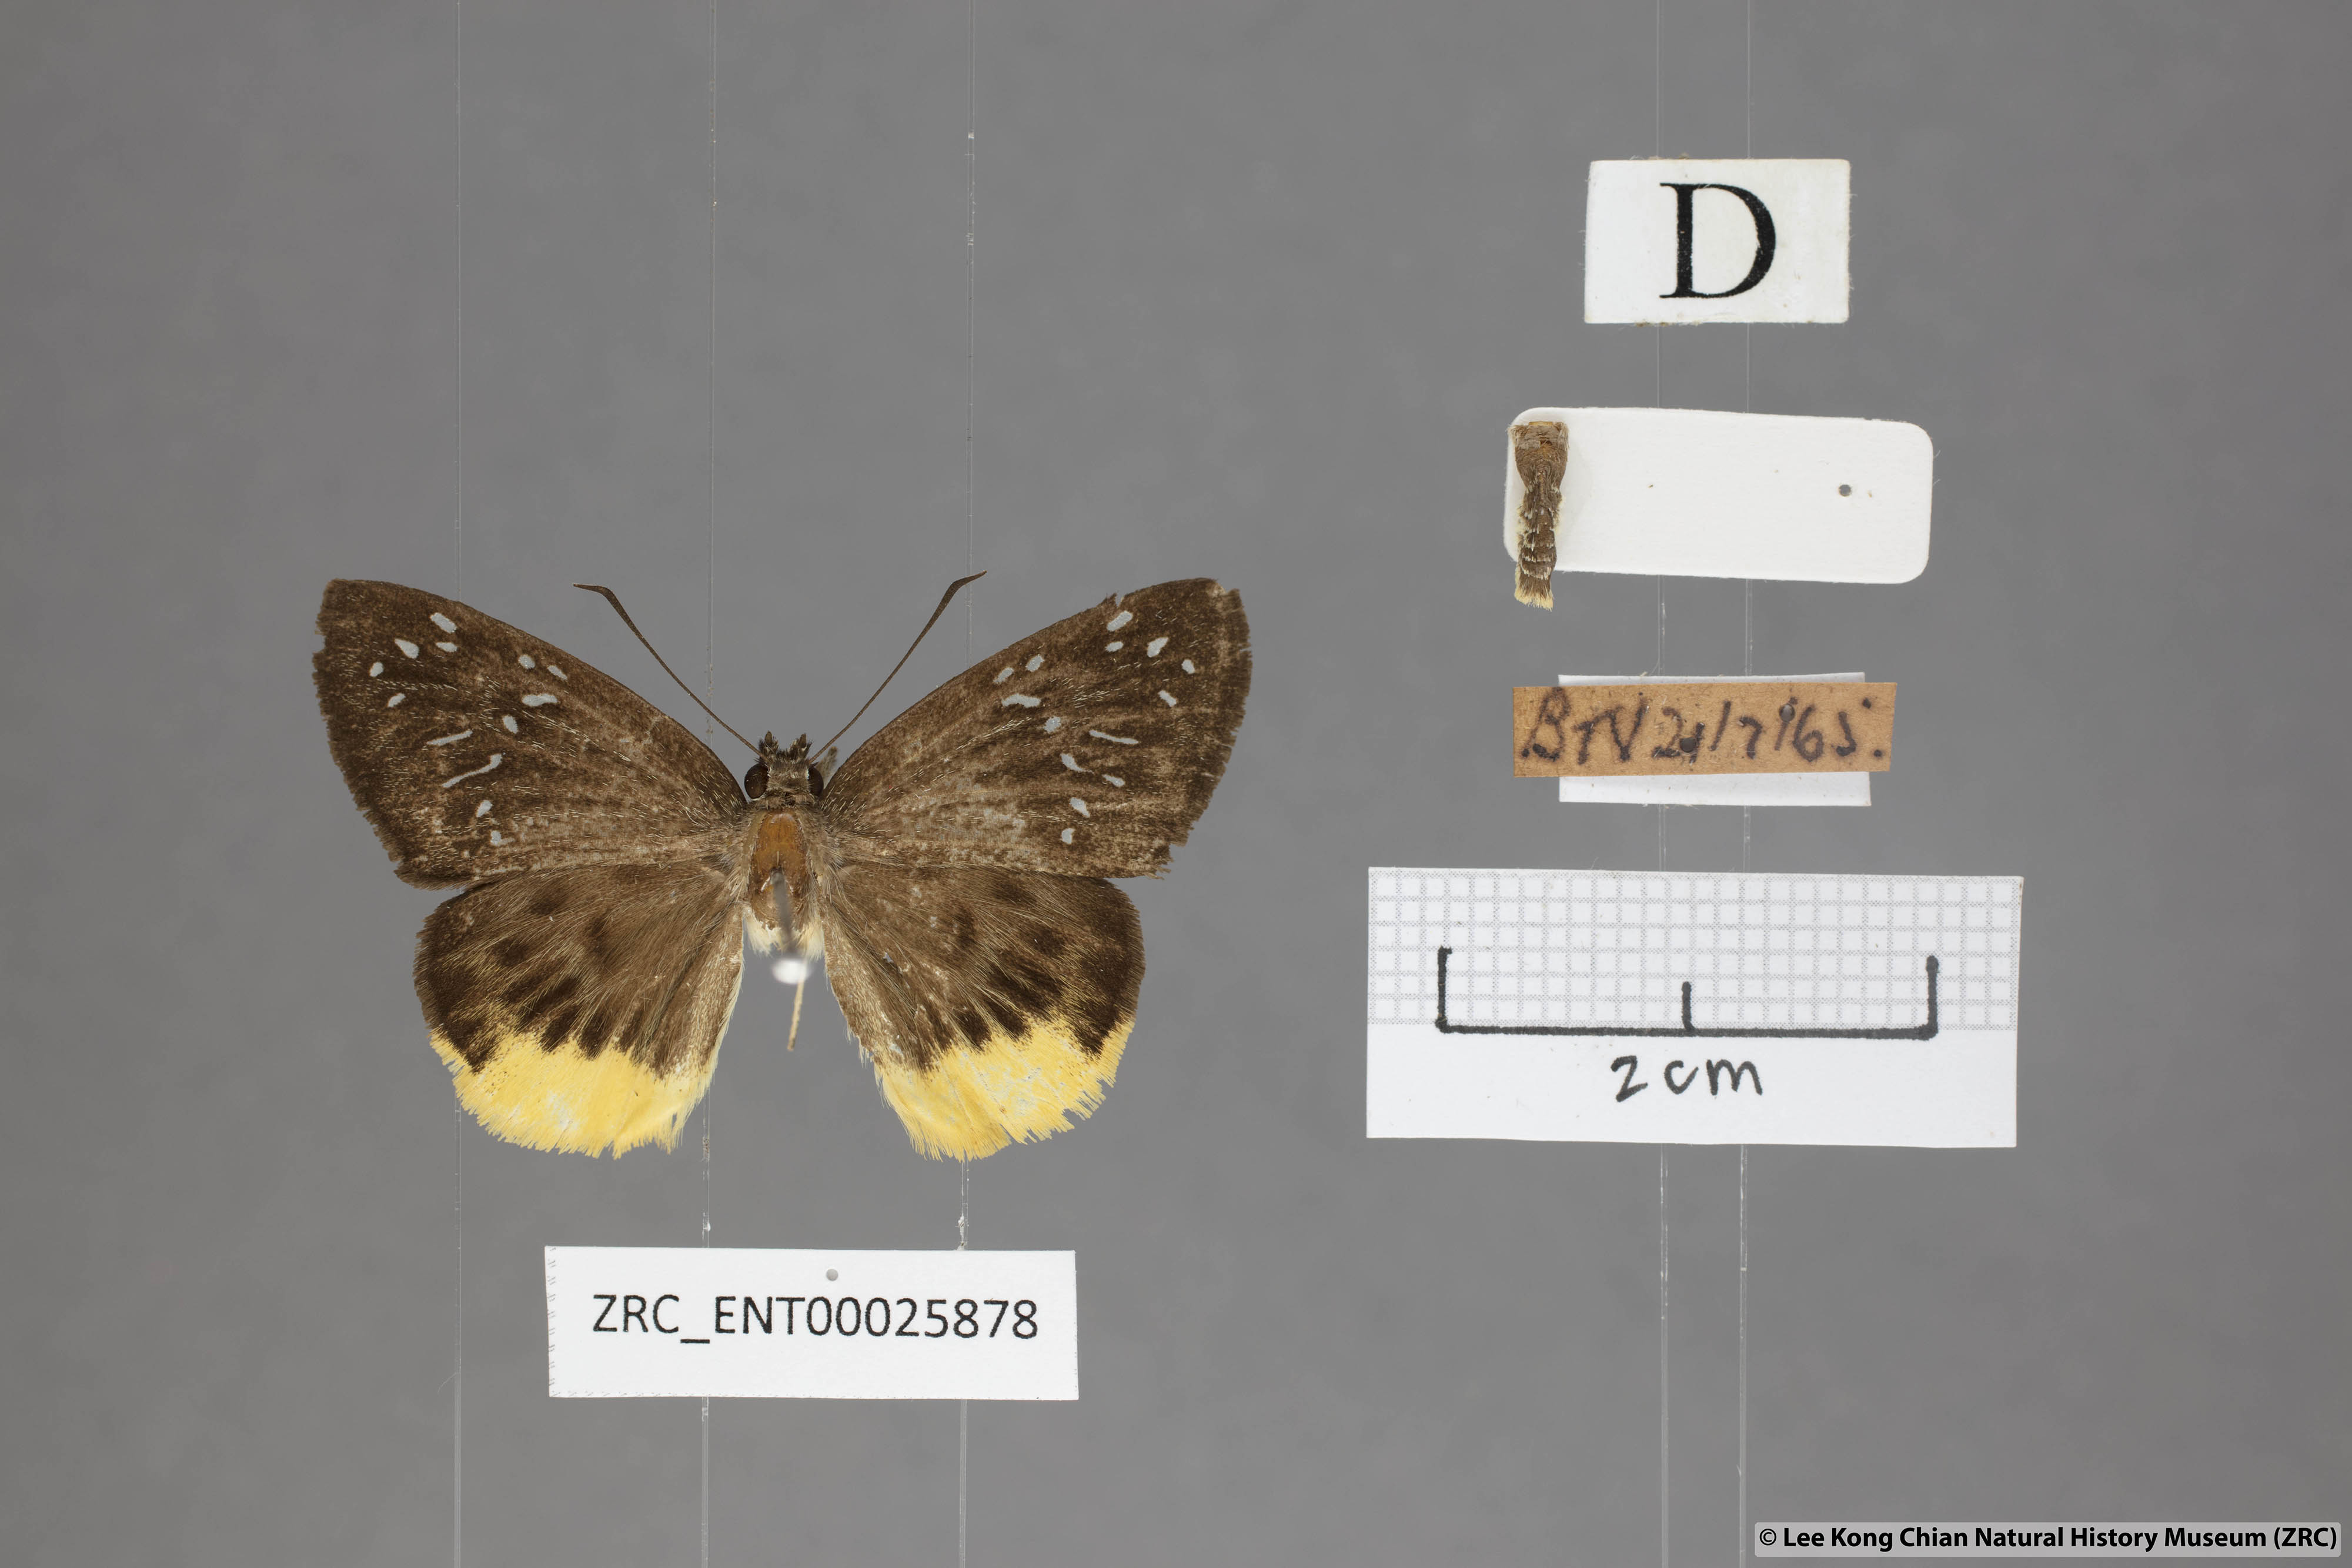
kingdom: Animalia
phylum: Arthropoda
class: Insecta
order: Lepidoptera
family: Hesperiidae
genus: Mooreana
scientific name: Mooreana trichoneura
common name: Yellow flat
